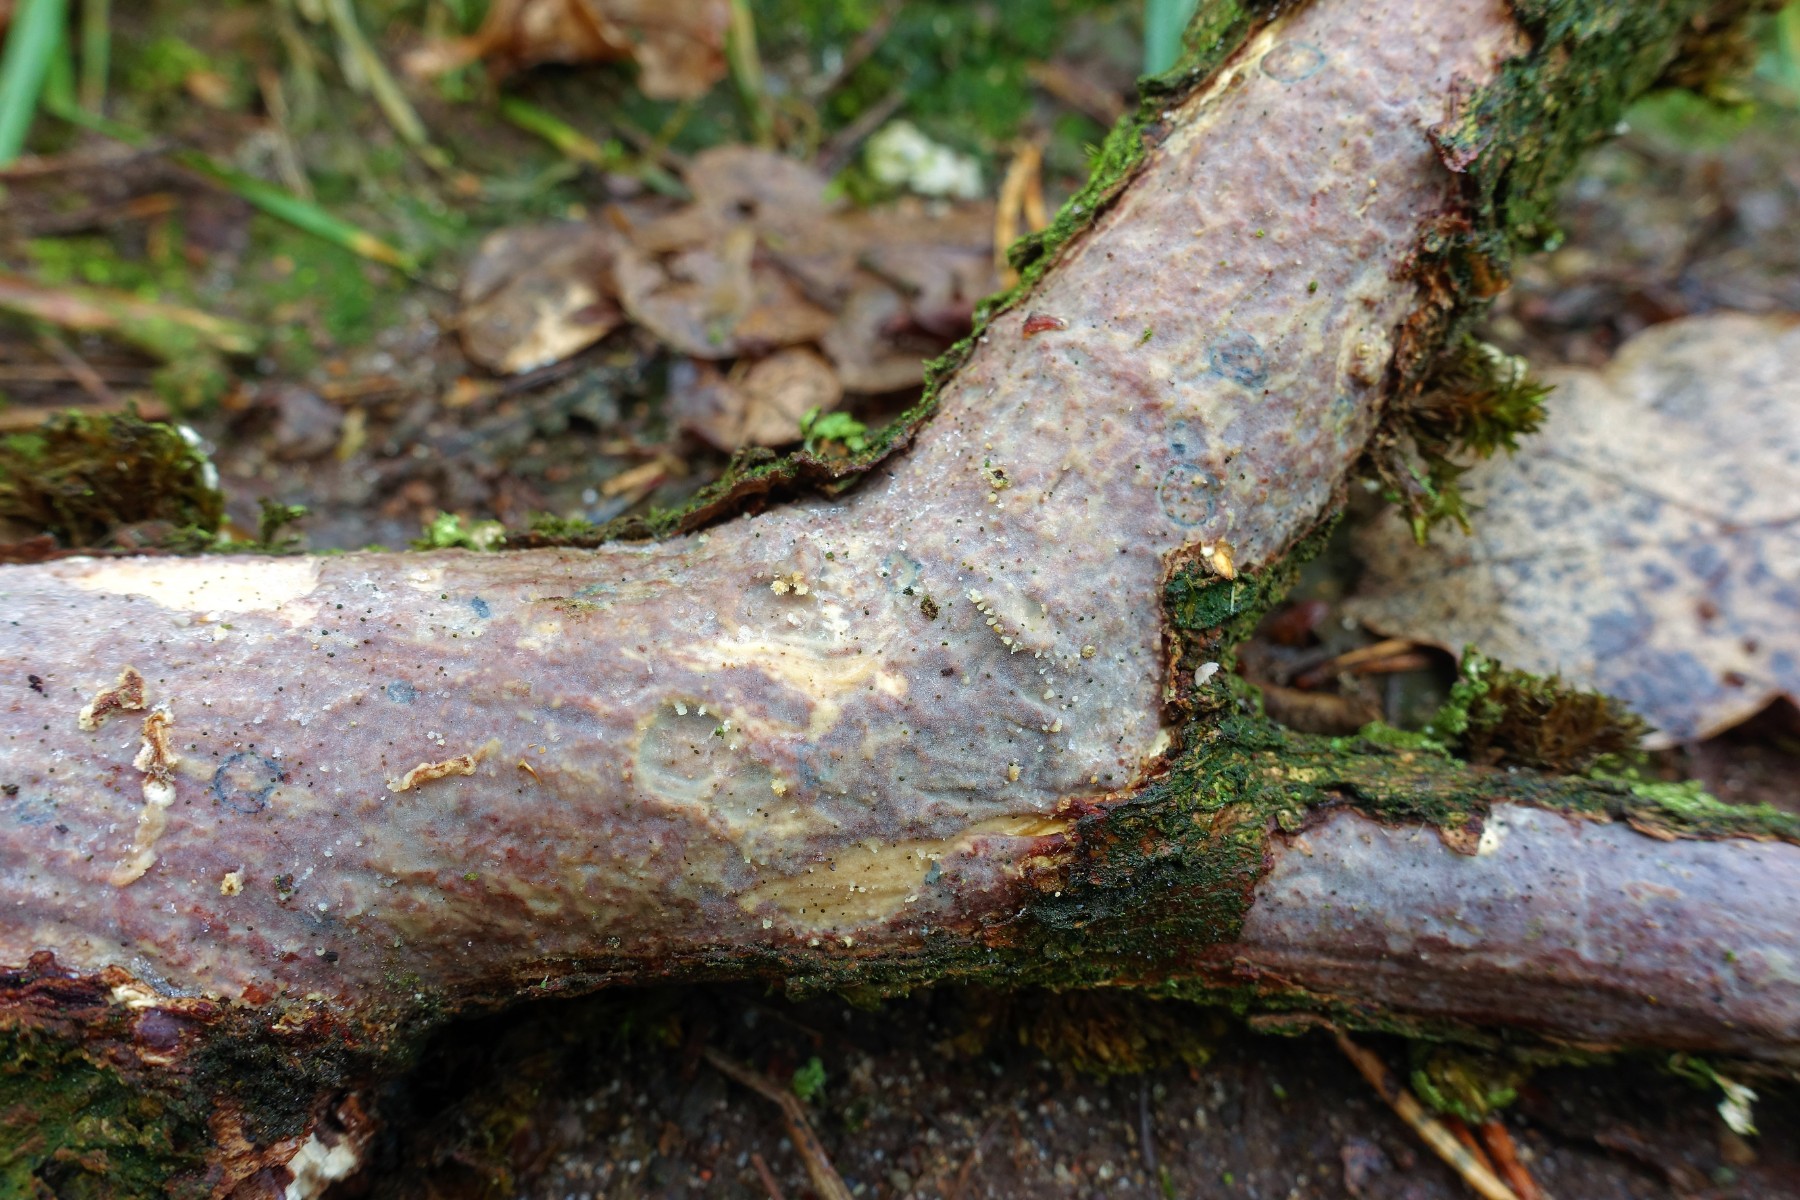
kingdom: Fungi
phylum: Basidiomycota
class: Agaricomycetes
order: Russulales
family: Peniophoraceae
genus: Peniophora
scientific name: Peniophora quercina
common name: ege-voksskind
